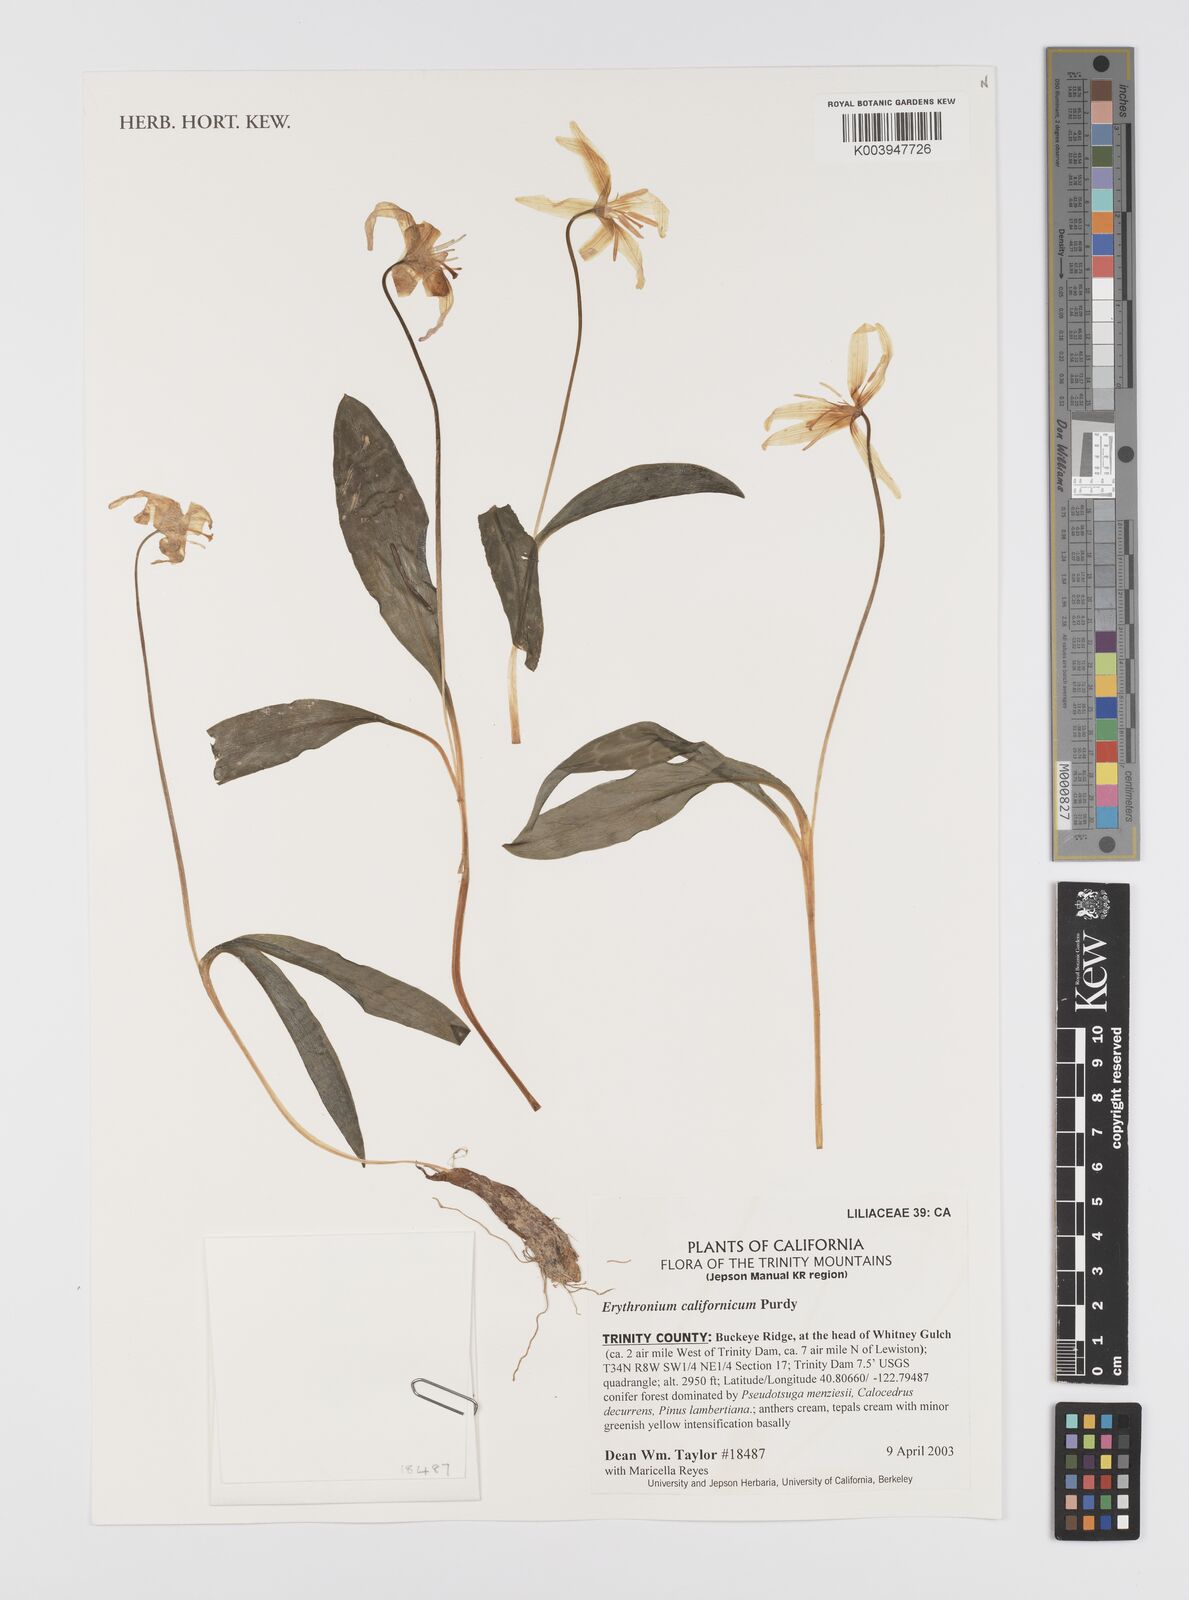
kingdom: Plantae
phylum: Tracheophyta
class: Liliopsida
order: Liliales
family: Liliaceae
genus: Erythronium
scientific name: Erythronium californicum
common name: Fawn-lily
